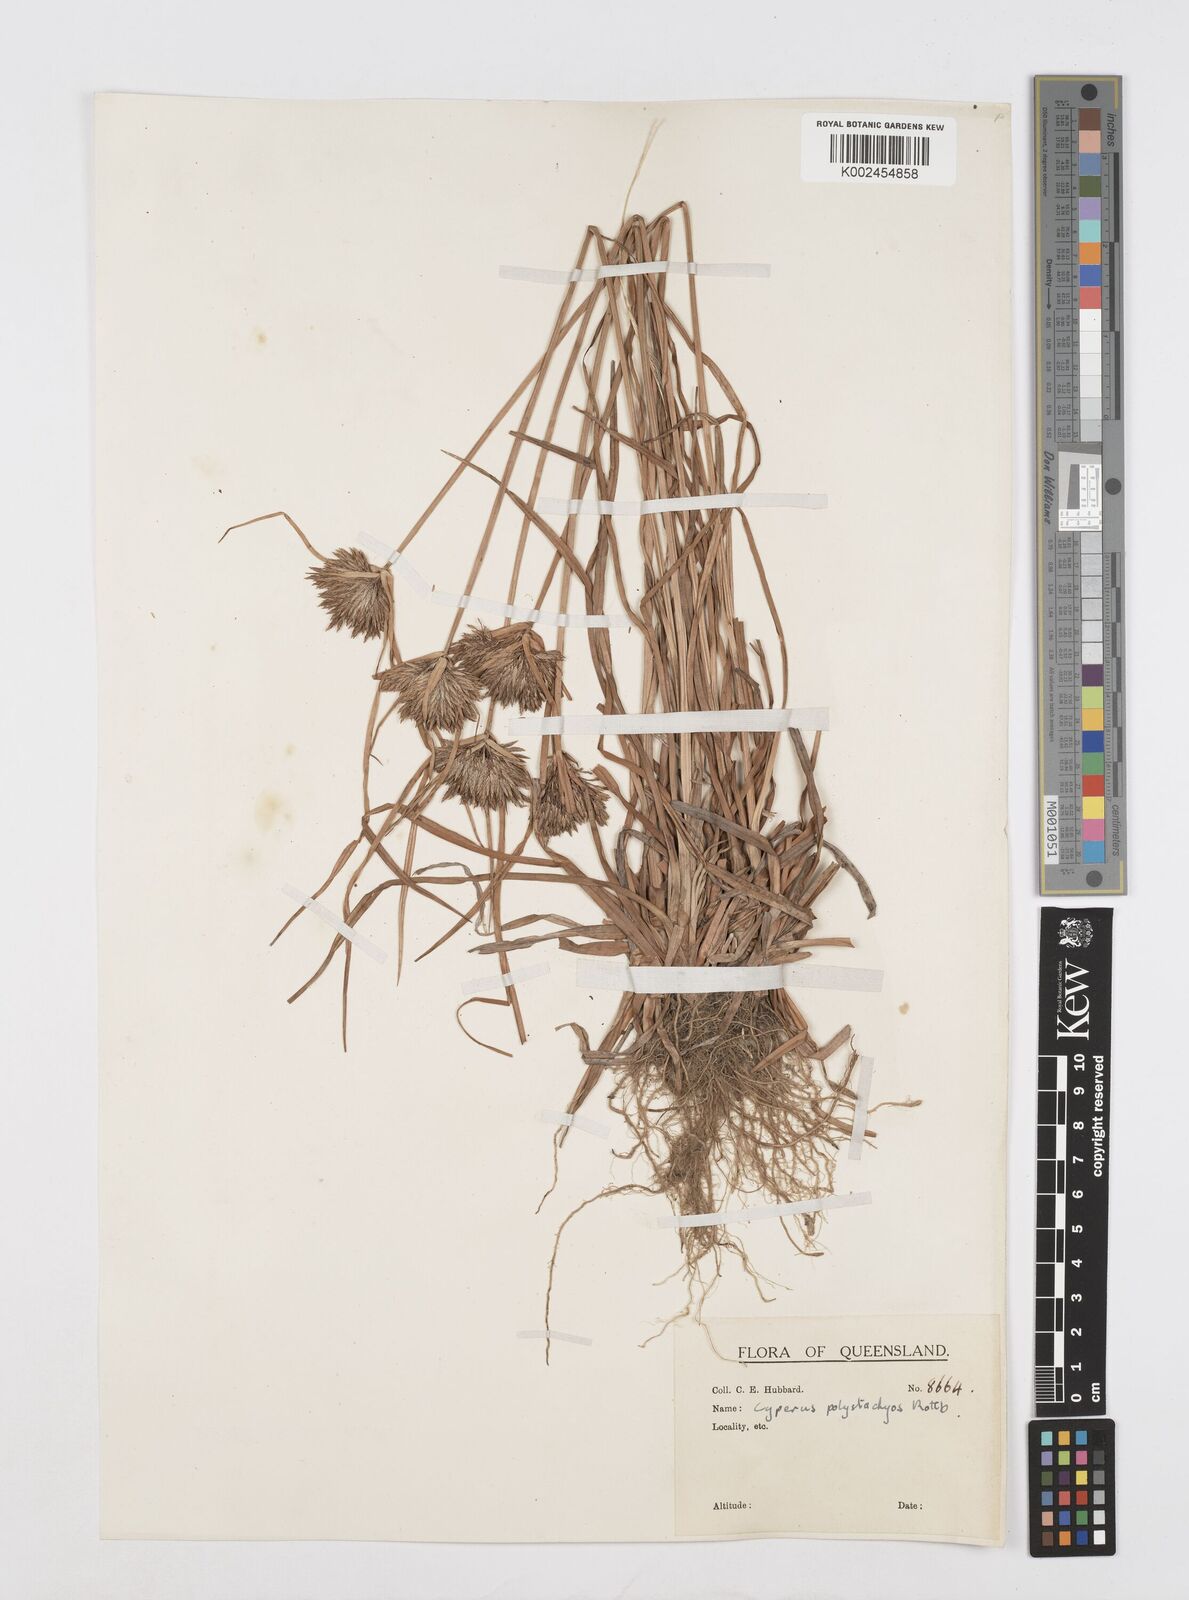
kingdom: Plantae
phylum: Tracheophyta
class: Liliopsida
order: Poales
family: Cyperaceae
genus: Cyperus
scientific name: Cyperus polystachyos
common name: Bunchy flat sedge
